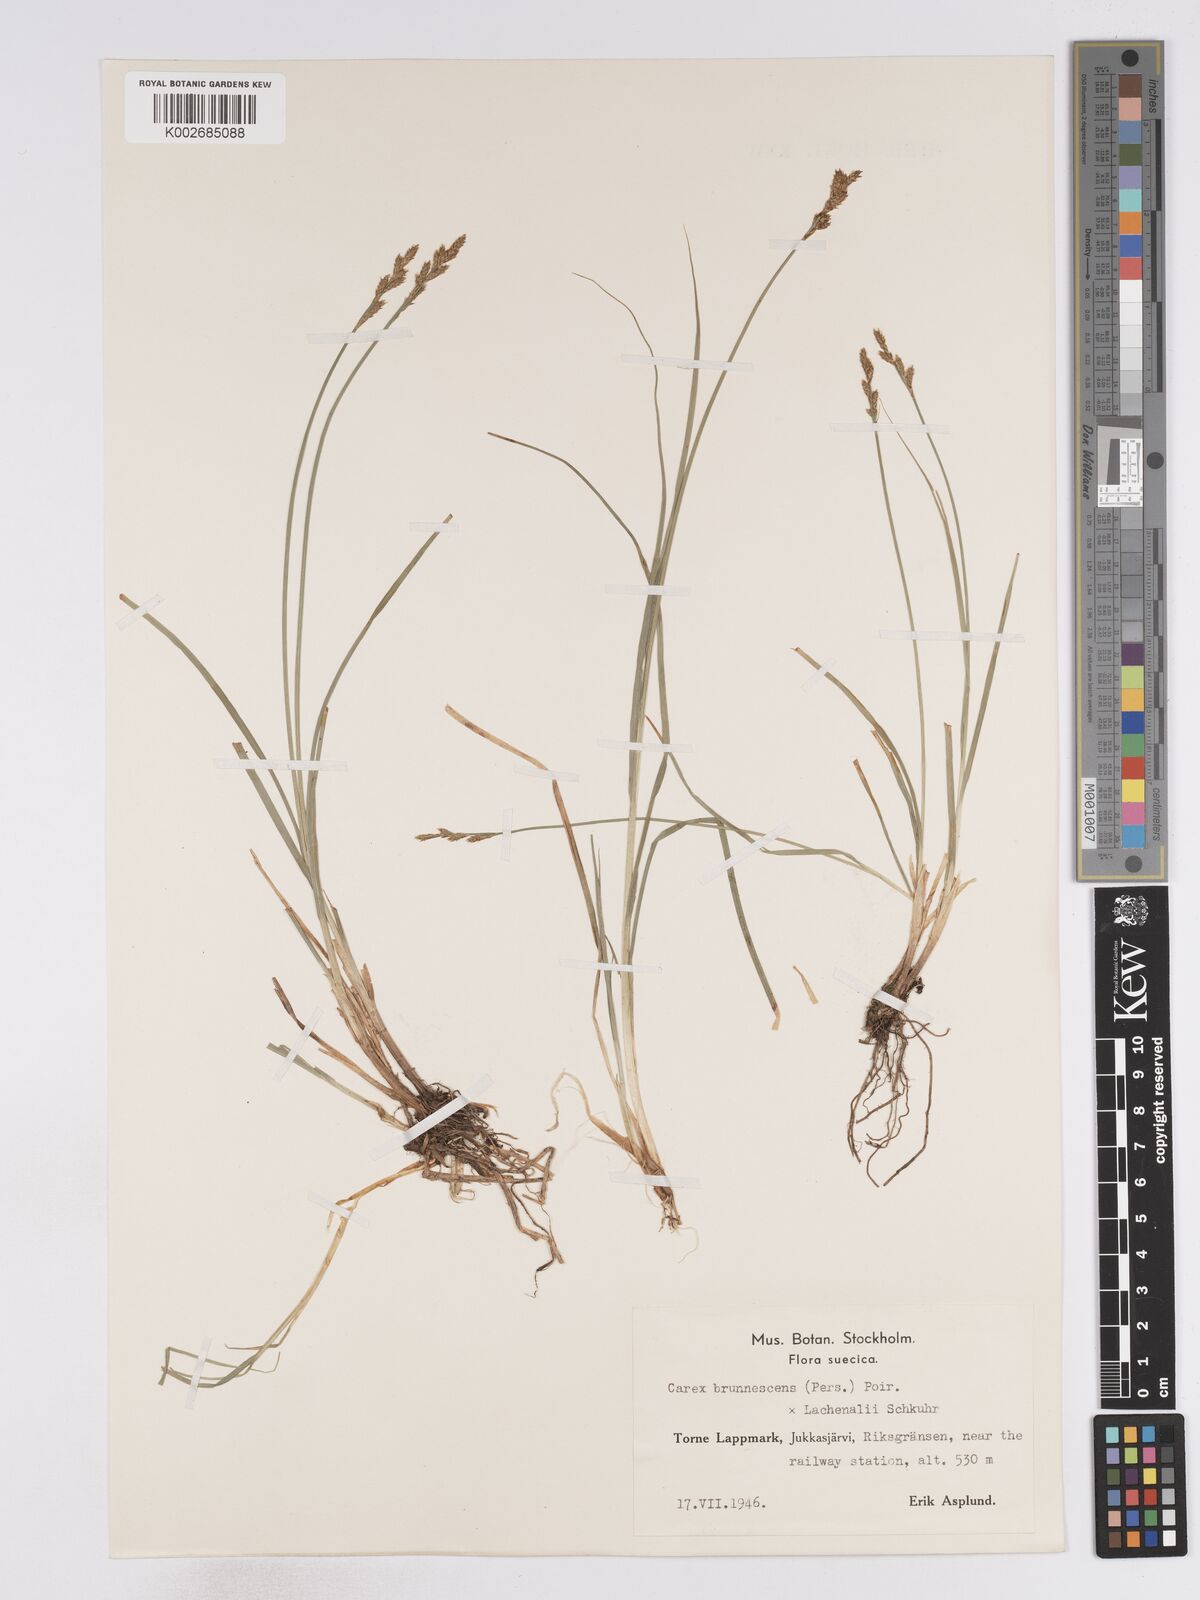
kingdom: Plantae
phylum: Tracheophyta
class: Liliopsida
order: Poales
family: Cyperaceae
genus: Carex
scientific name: Carex brunnescens
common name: Brown sedge
